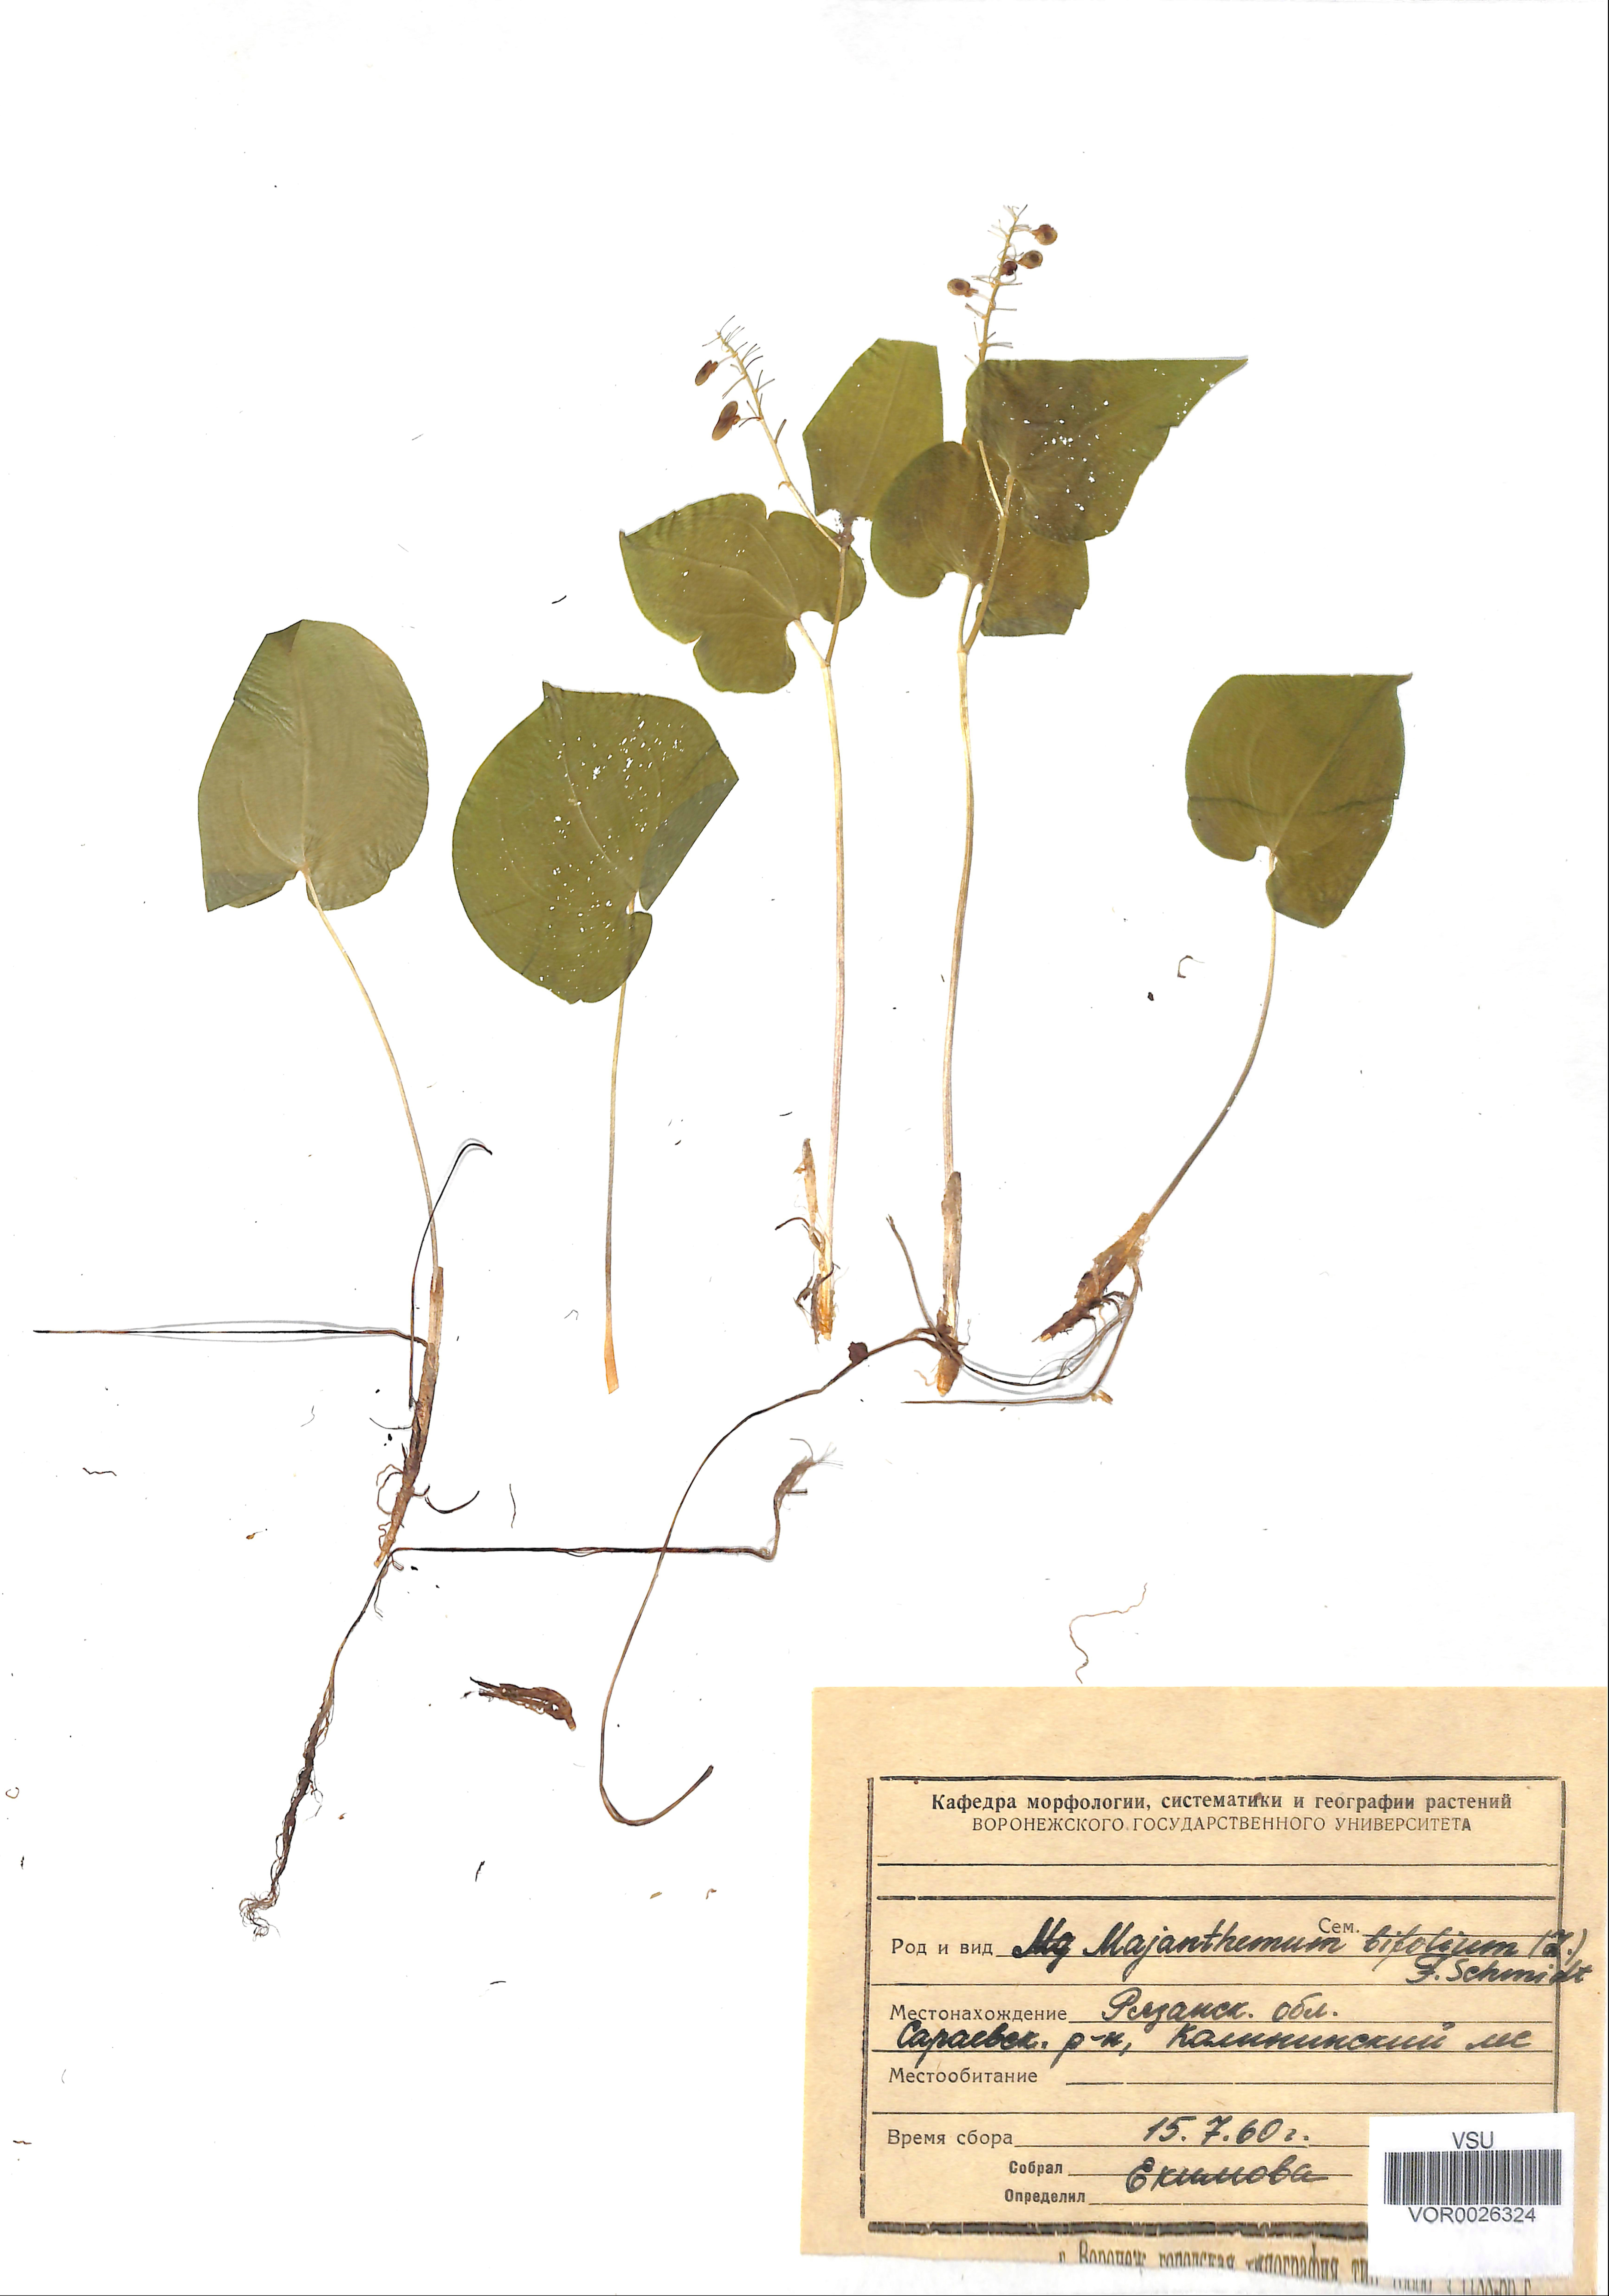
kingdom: Plantae
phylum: Tracheophyta
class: Liliopsida
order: Asparagales
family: Asparagaceae
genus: Maianthemum
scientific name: Maianthemum bifolium
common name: May lily
